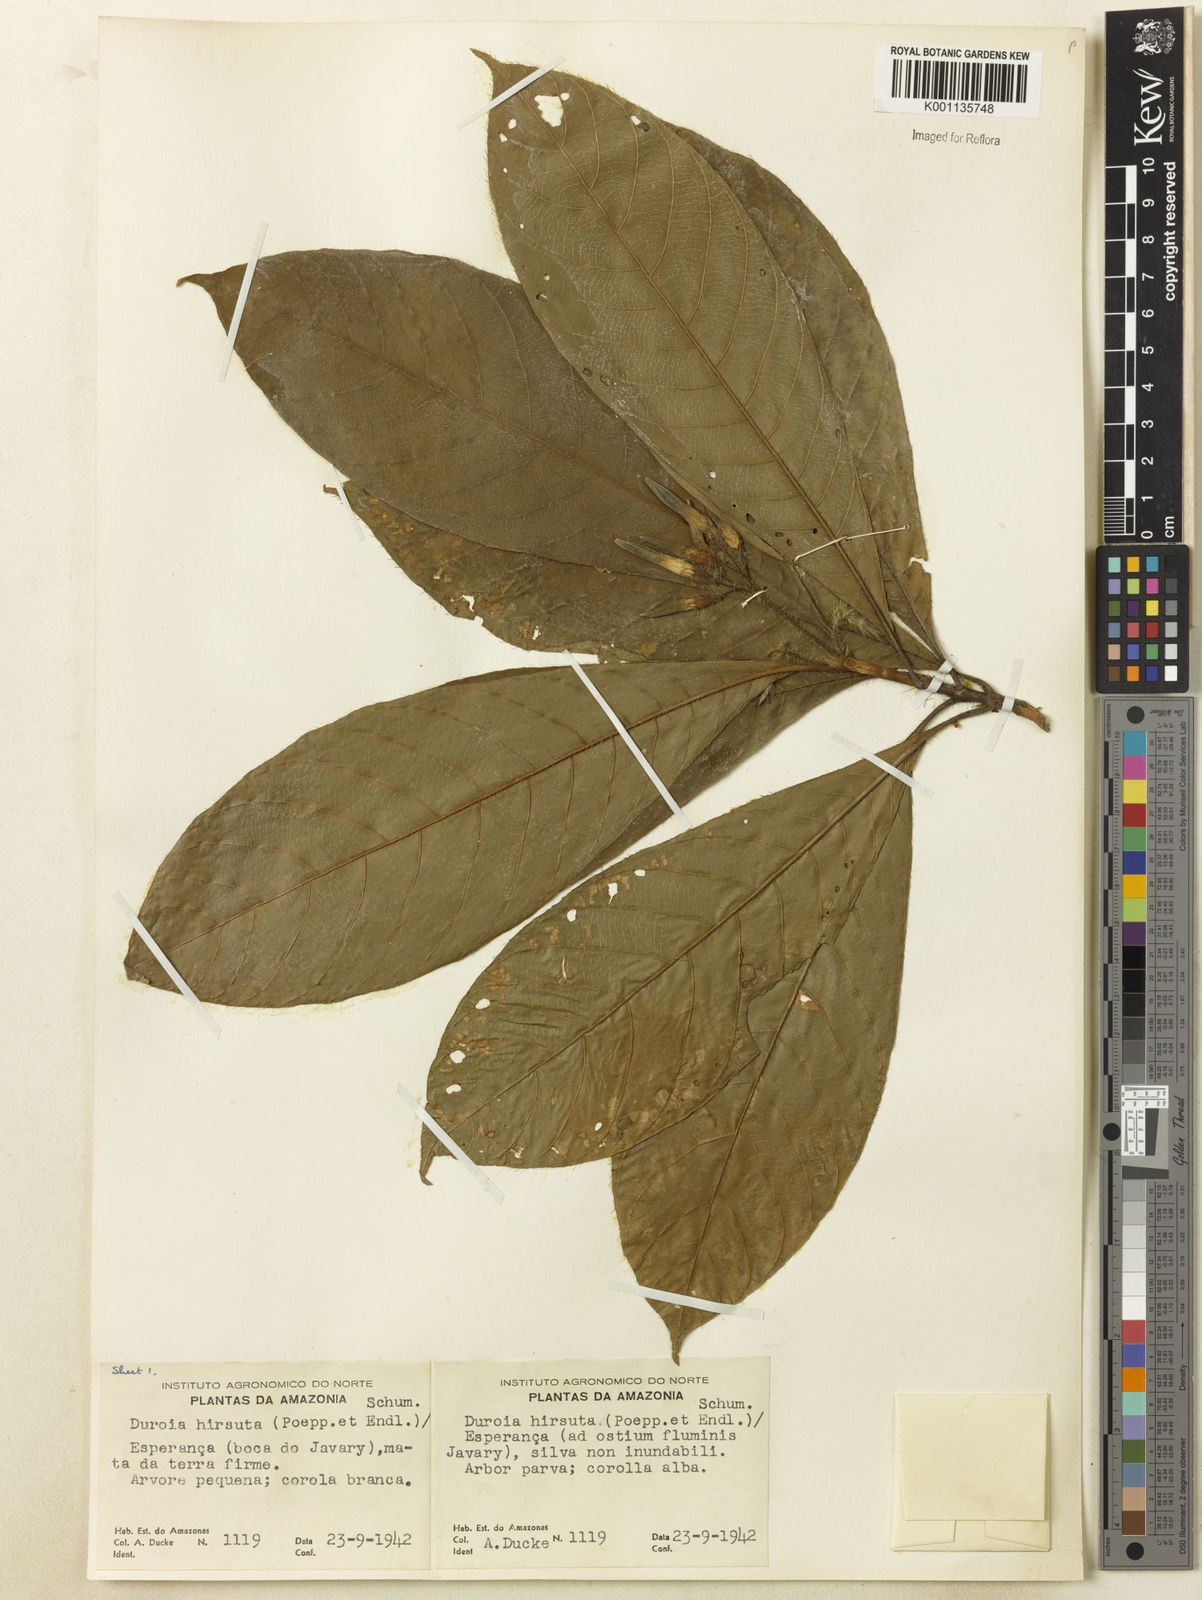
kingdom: Plantae
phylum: Tracheophyta
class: Magnoliopsida
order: Gentianales
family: Rubiaceae
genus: Duroia
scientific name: Duroia hirsuta
